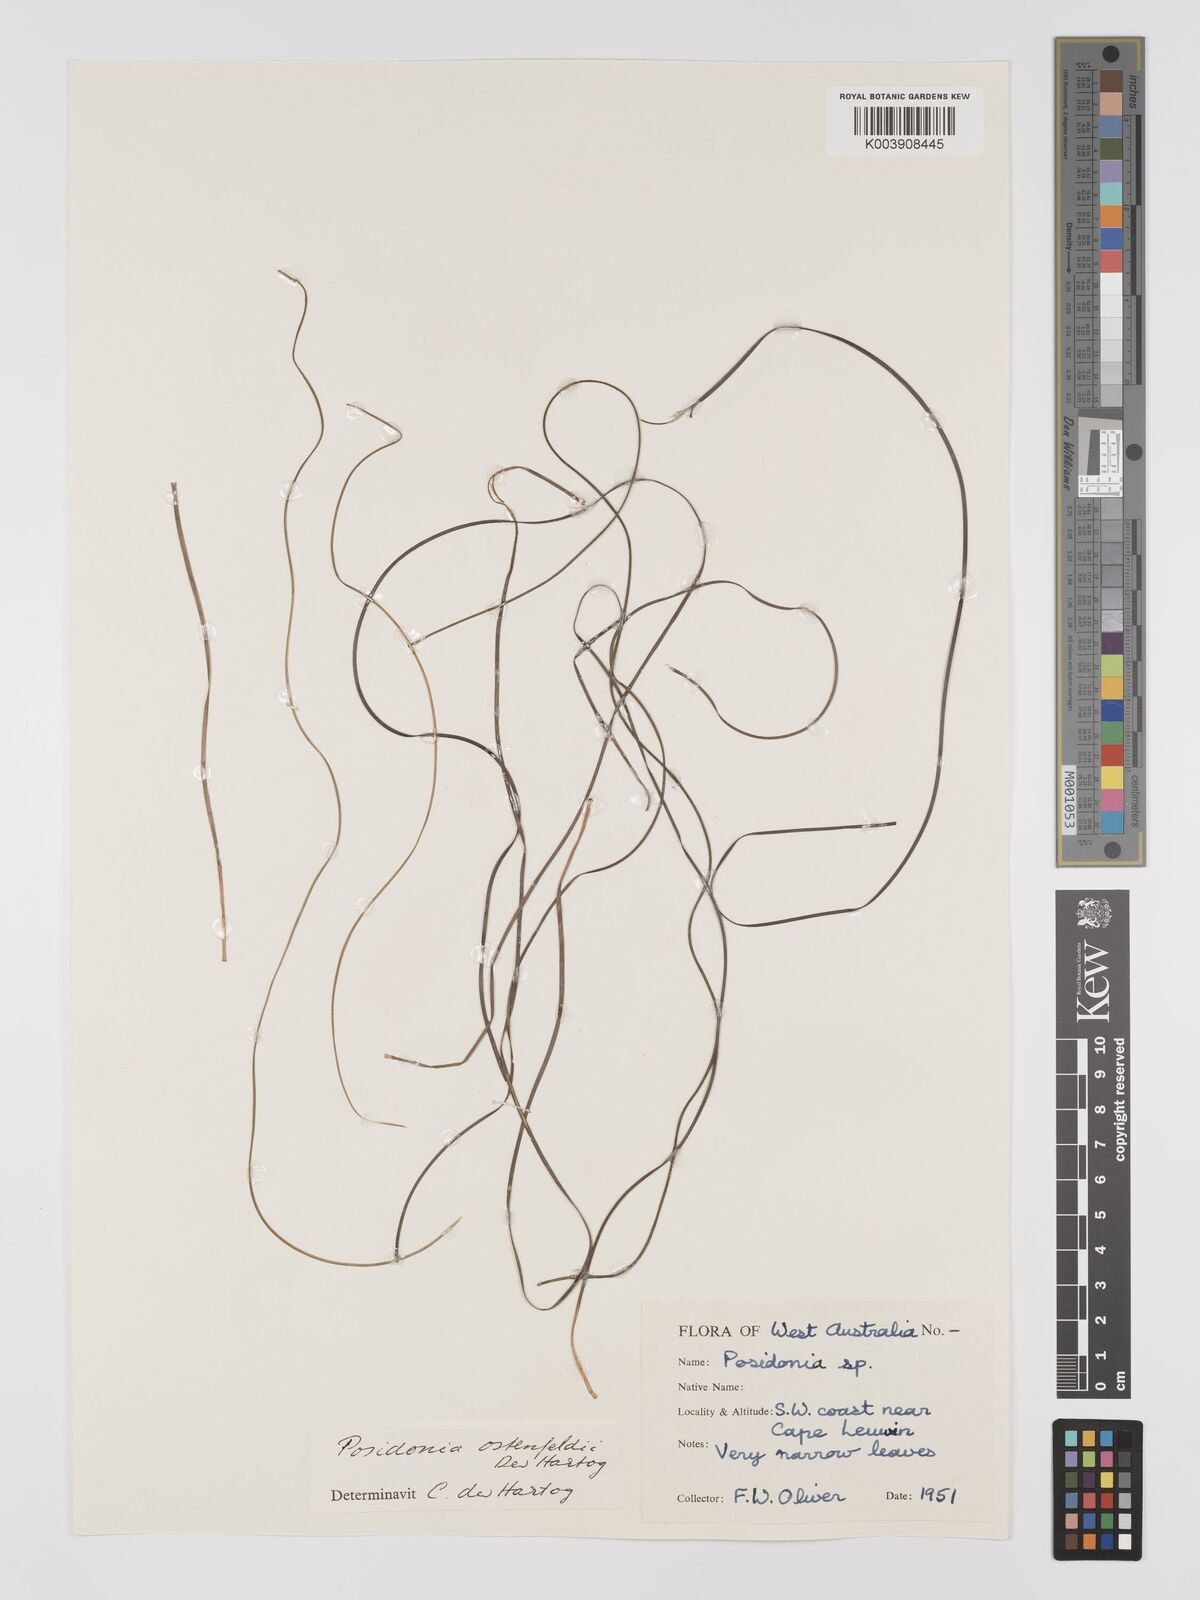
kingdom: Plantae
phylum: Tracheophyta
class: Liliopsida
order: Alismatales
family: Posidoniaceae
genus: Posidonia
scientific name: Posidonia ostenfeldii
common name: Species code: pf
